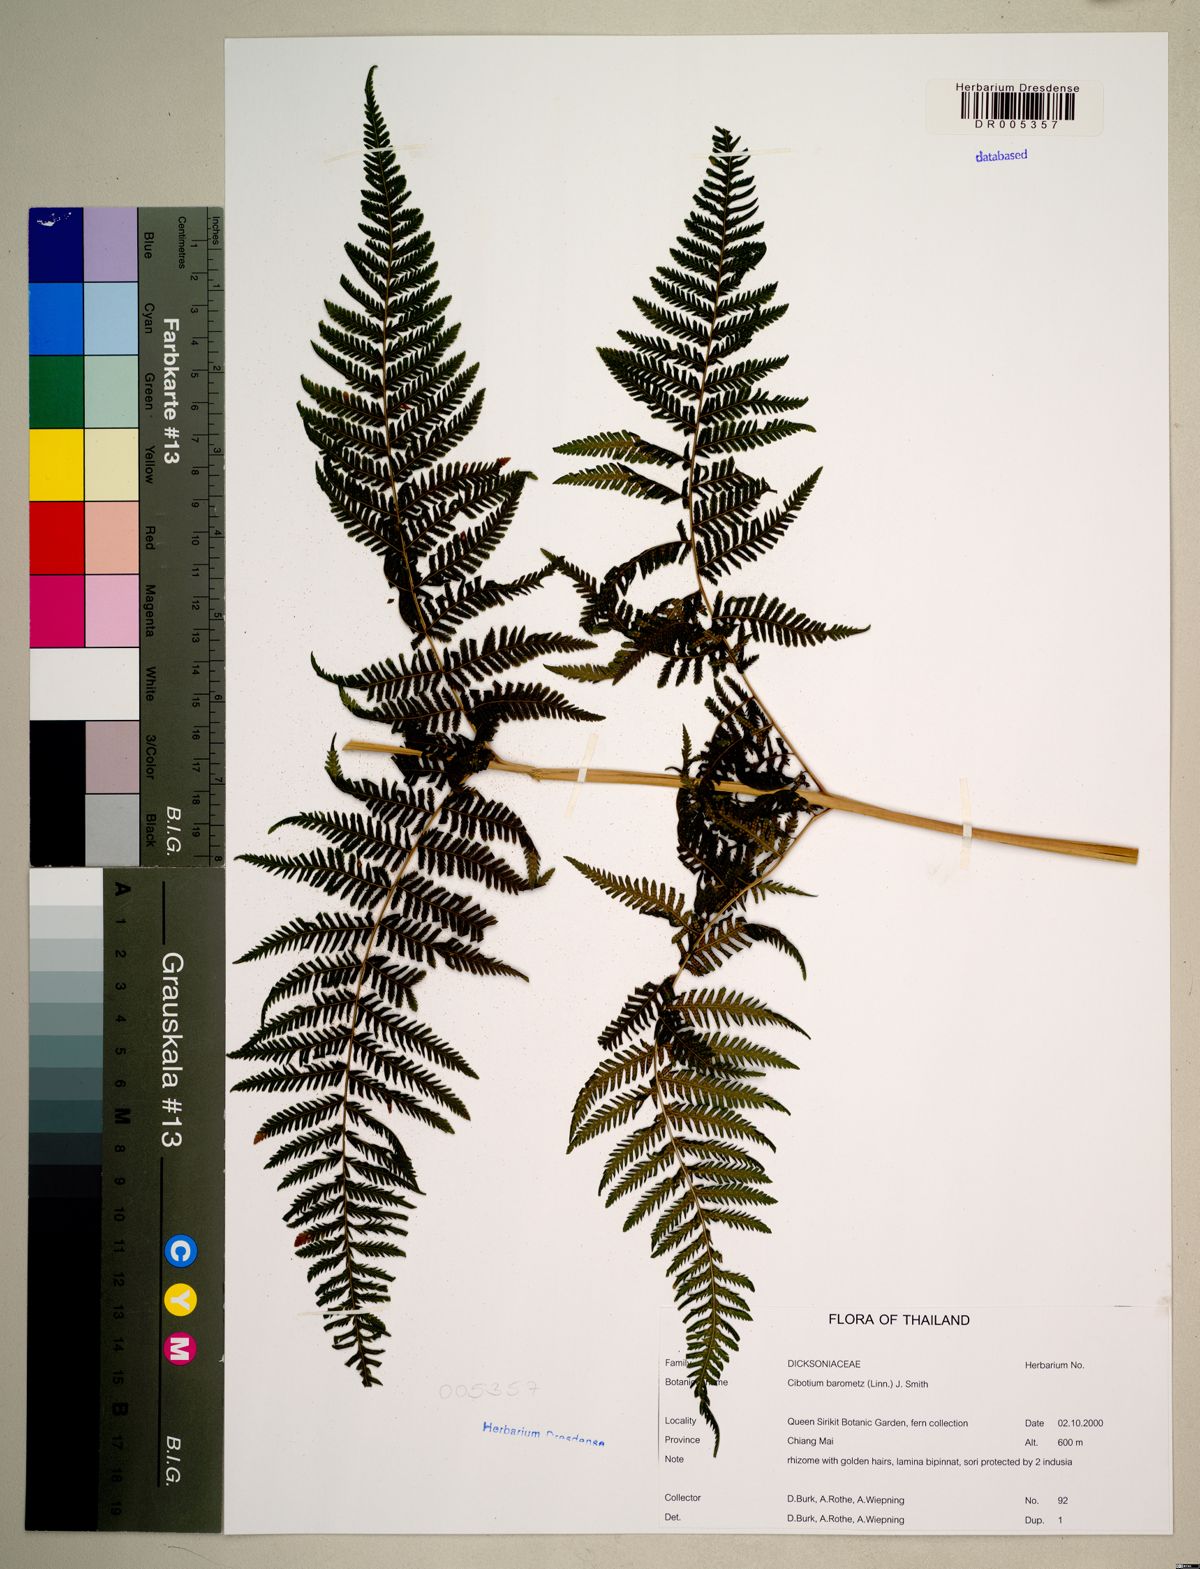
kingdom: Plantae
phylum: Tracheophyta
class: Polypodiopsida
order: Cyatheales
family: Cibotiaceae
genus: Cibotium
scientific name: Cibotium barometz
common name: Scythian-lamb
